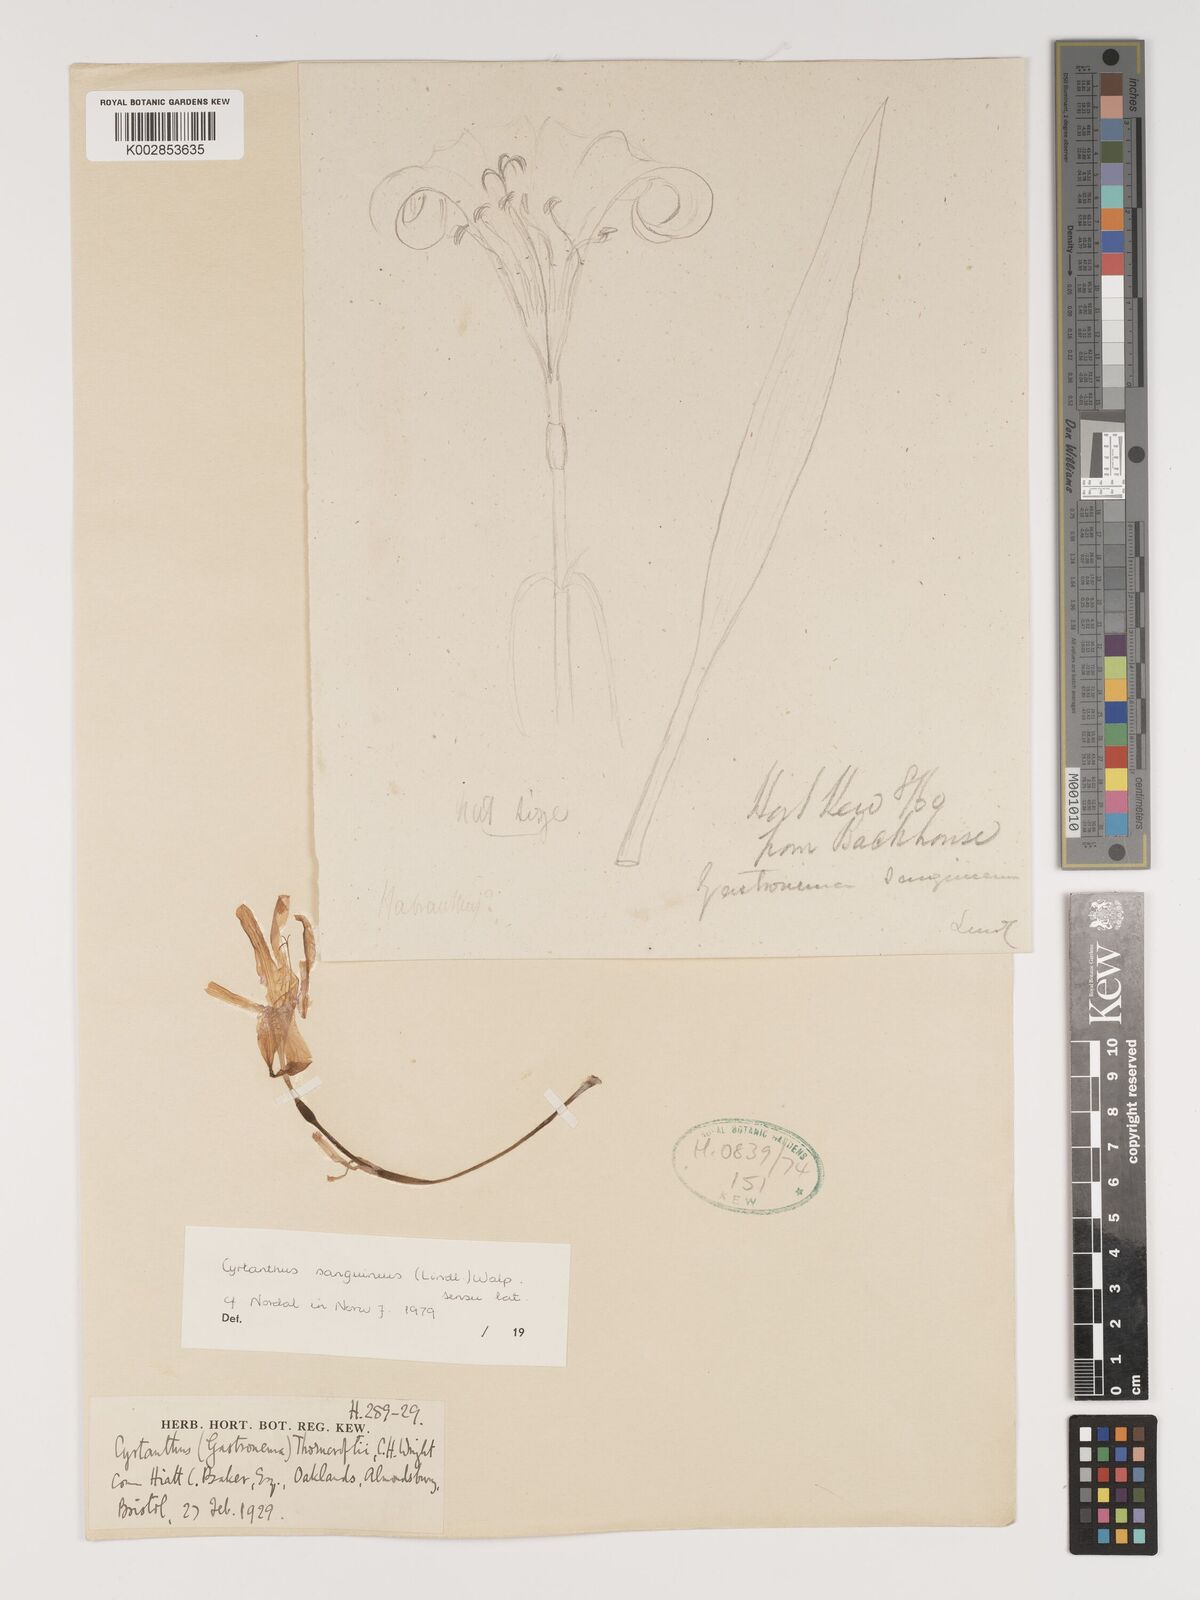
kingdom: Plantae
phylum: Tracheophyta
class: Liliopsida
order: Asparagales
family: Amaryllidaceae
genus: Cyrtanthus
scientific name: Cyrtanthus sanguineus
